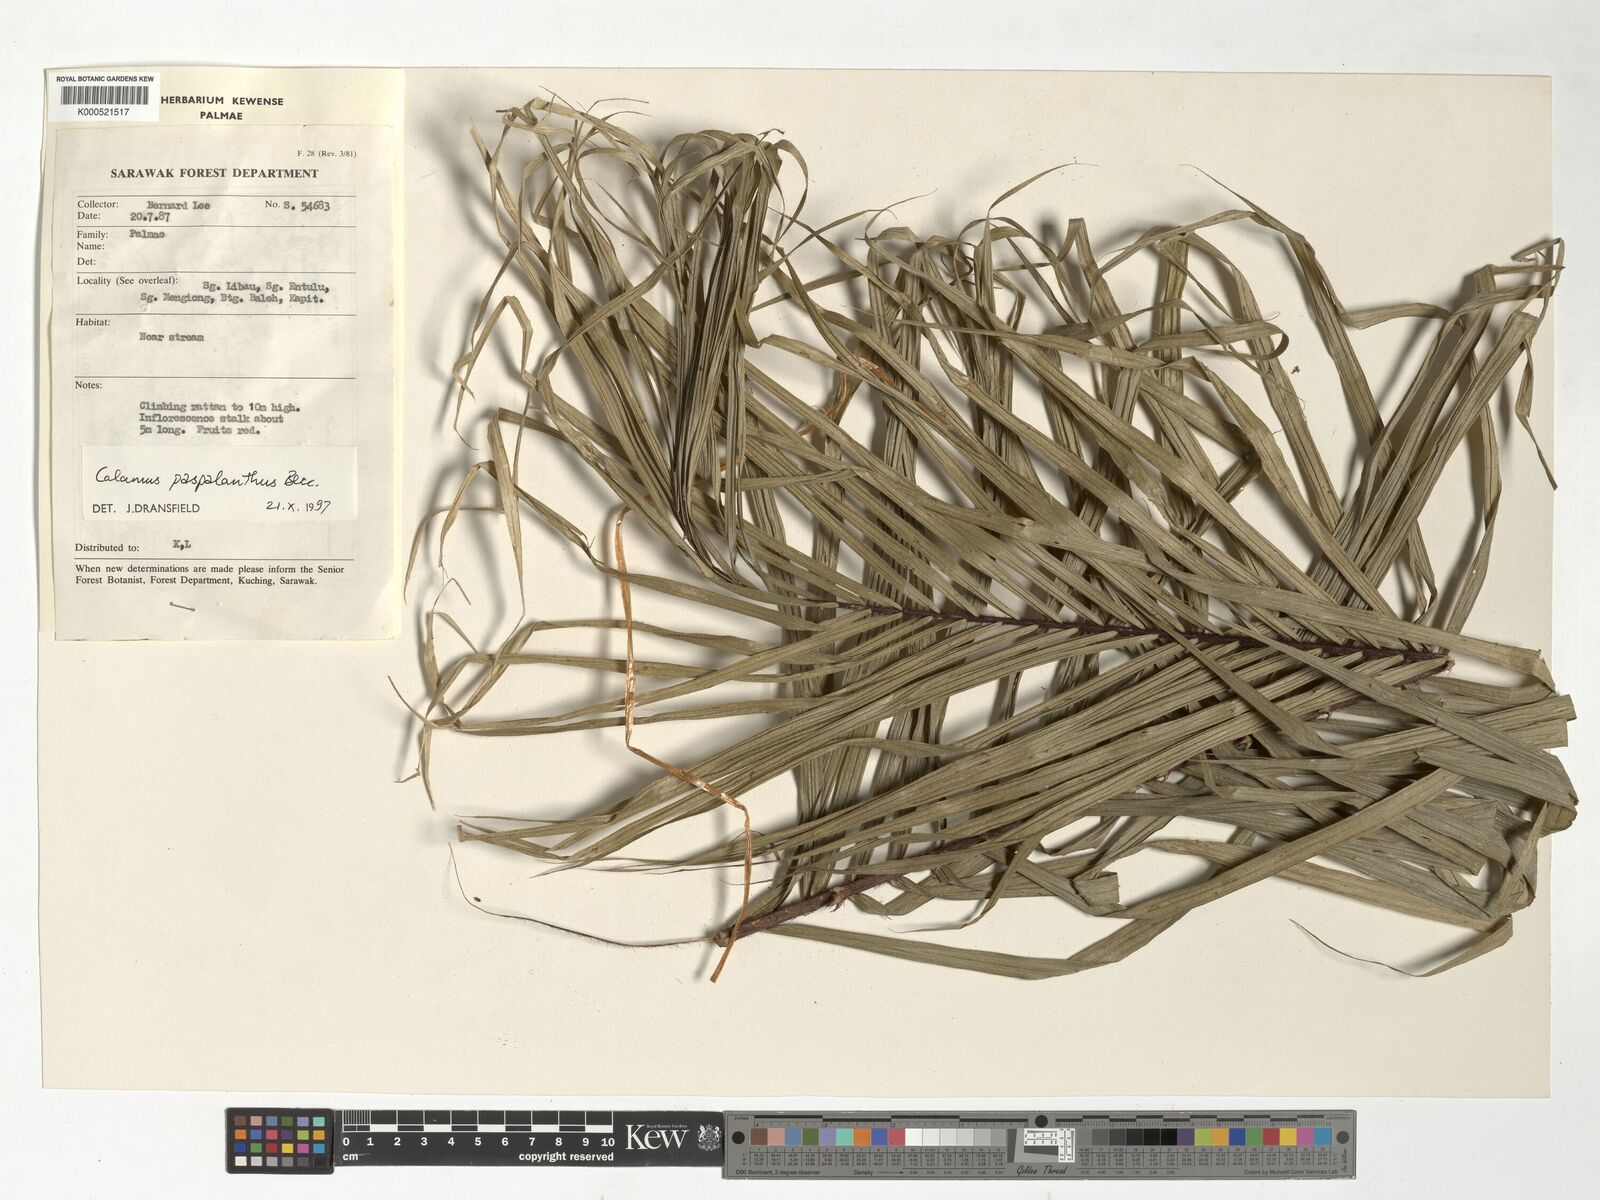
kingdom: Plantae
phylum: Tracheophyta
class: Liliopsida
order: Arecales
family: Arecaceae
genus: Calamus
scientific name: Calamus paspalanthus
